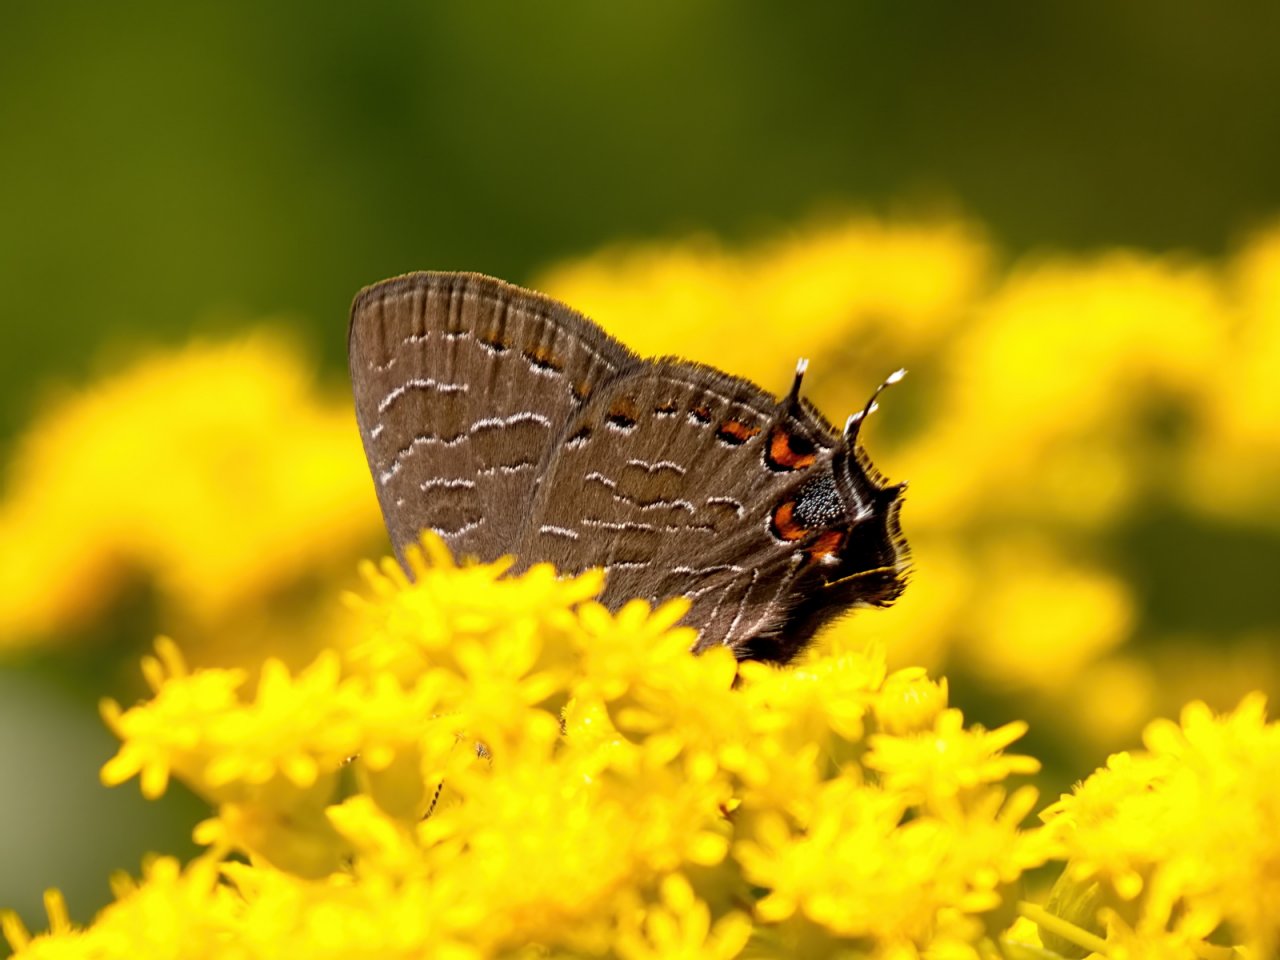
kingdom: Animalia
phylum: Arthropoda
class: Insecta
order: Lepidoptera
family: Lycaenidae
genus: Satyrium
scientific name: Satyrium liparops
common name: Striped Hairstreak
